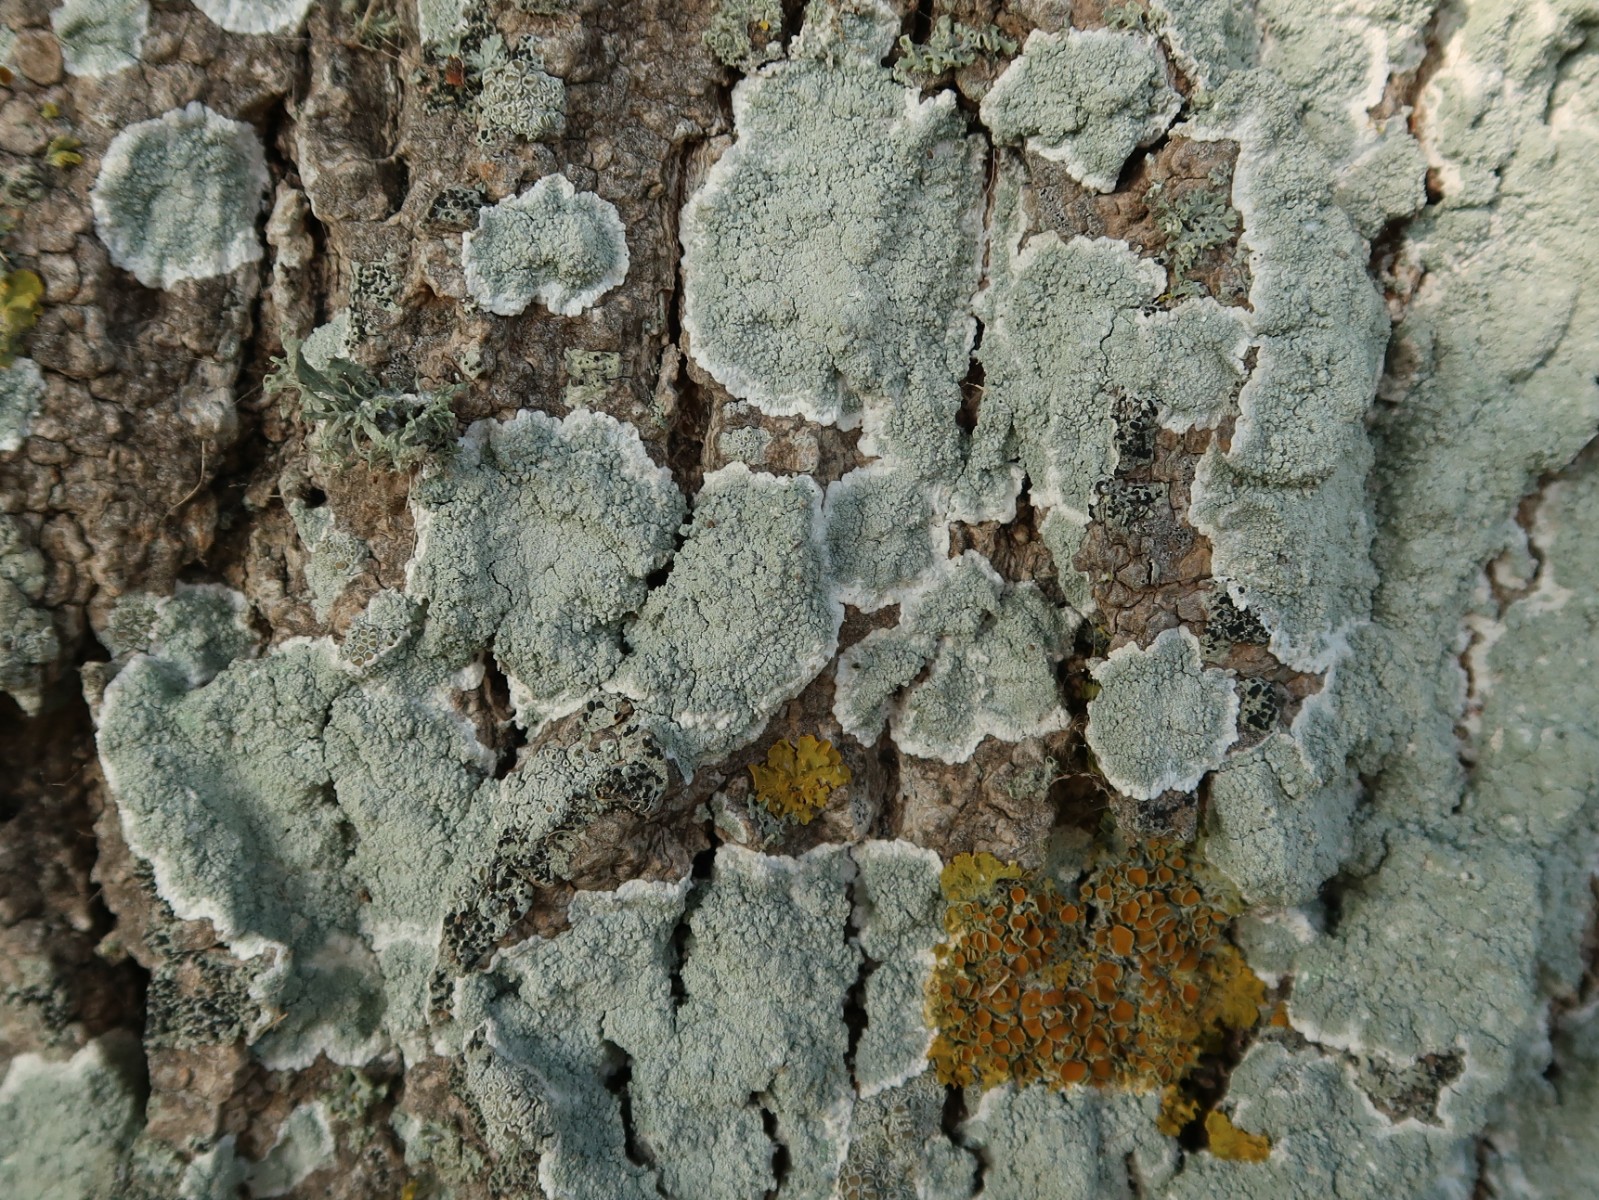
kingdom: Fungi
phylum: Ascomycota
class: Lecanoromycetes
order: Lecanorales
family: Haematommataceae
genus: Haematomma
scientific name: Haematomma ochroleucum
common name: gul trådkantlav
